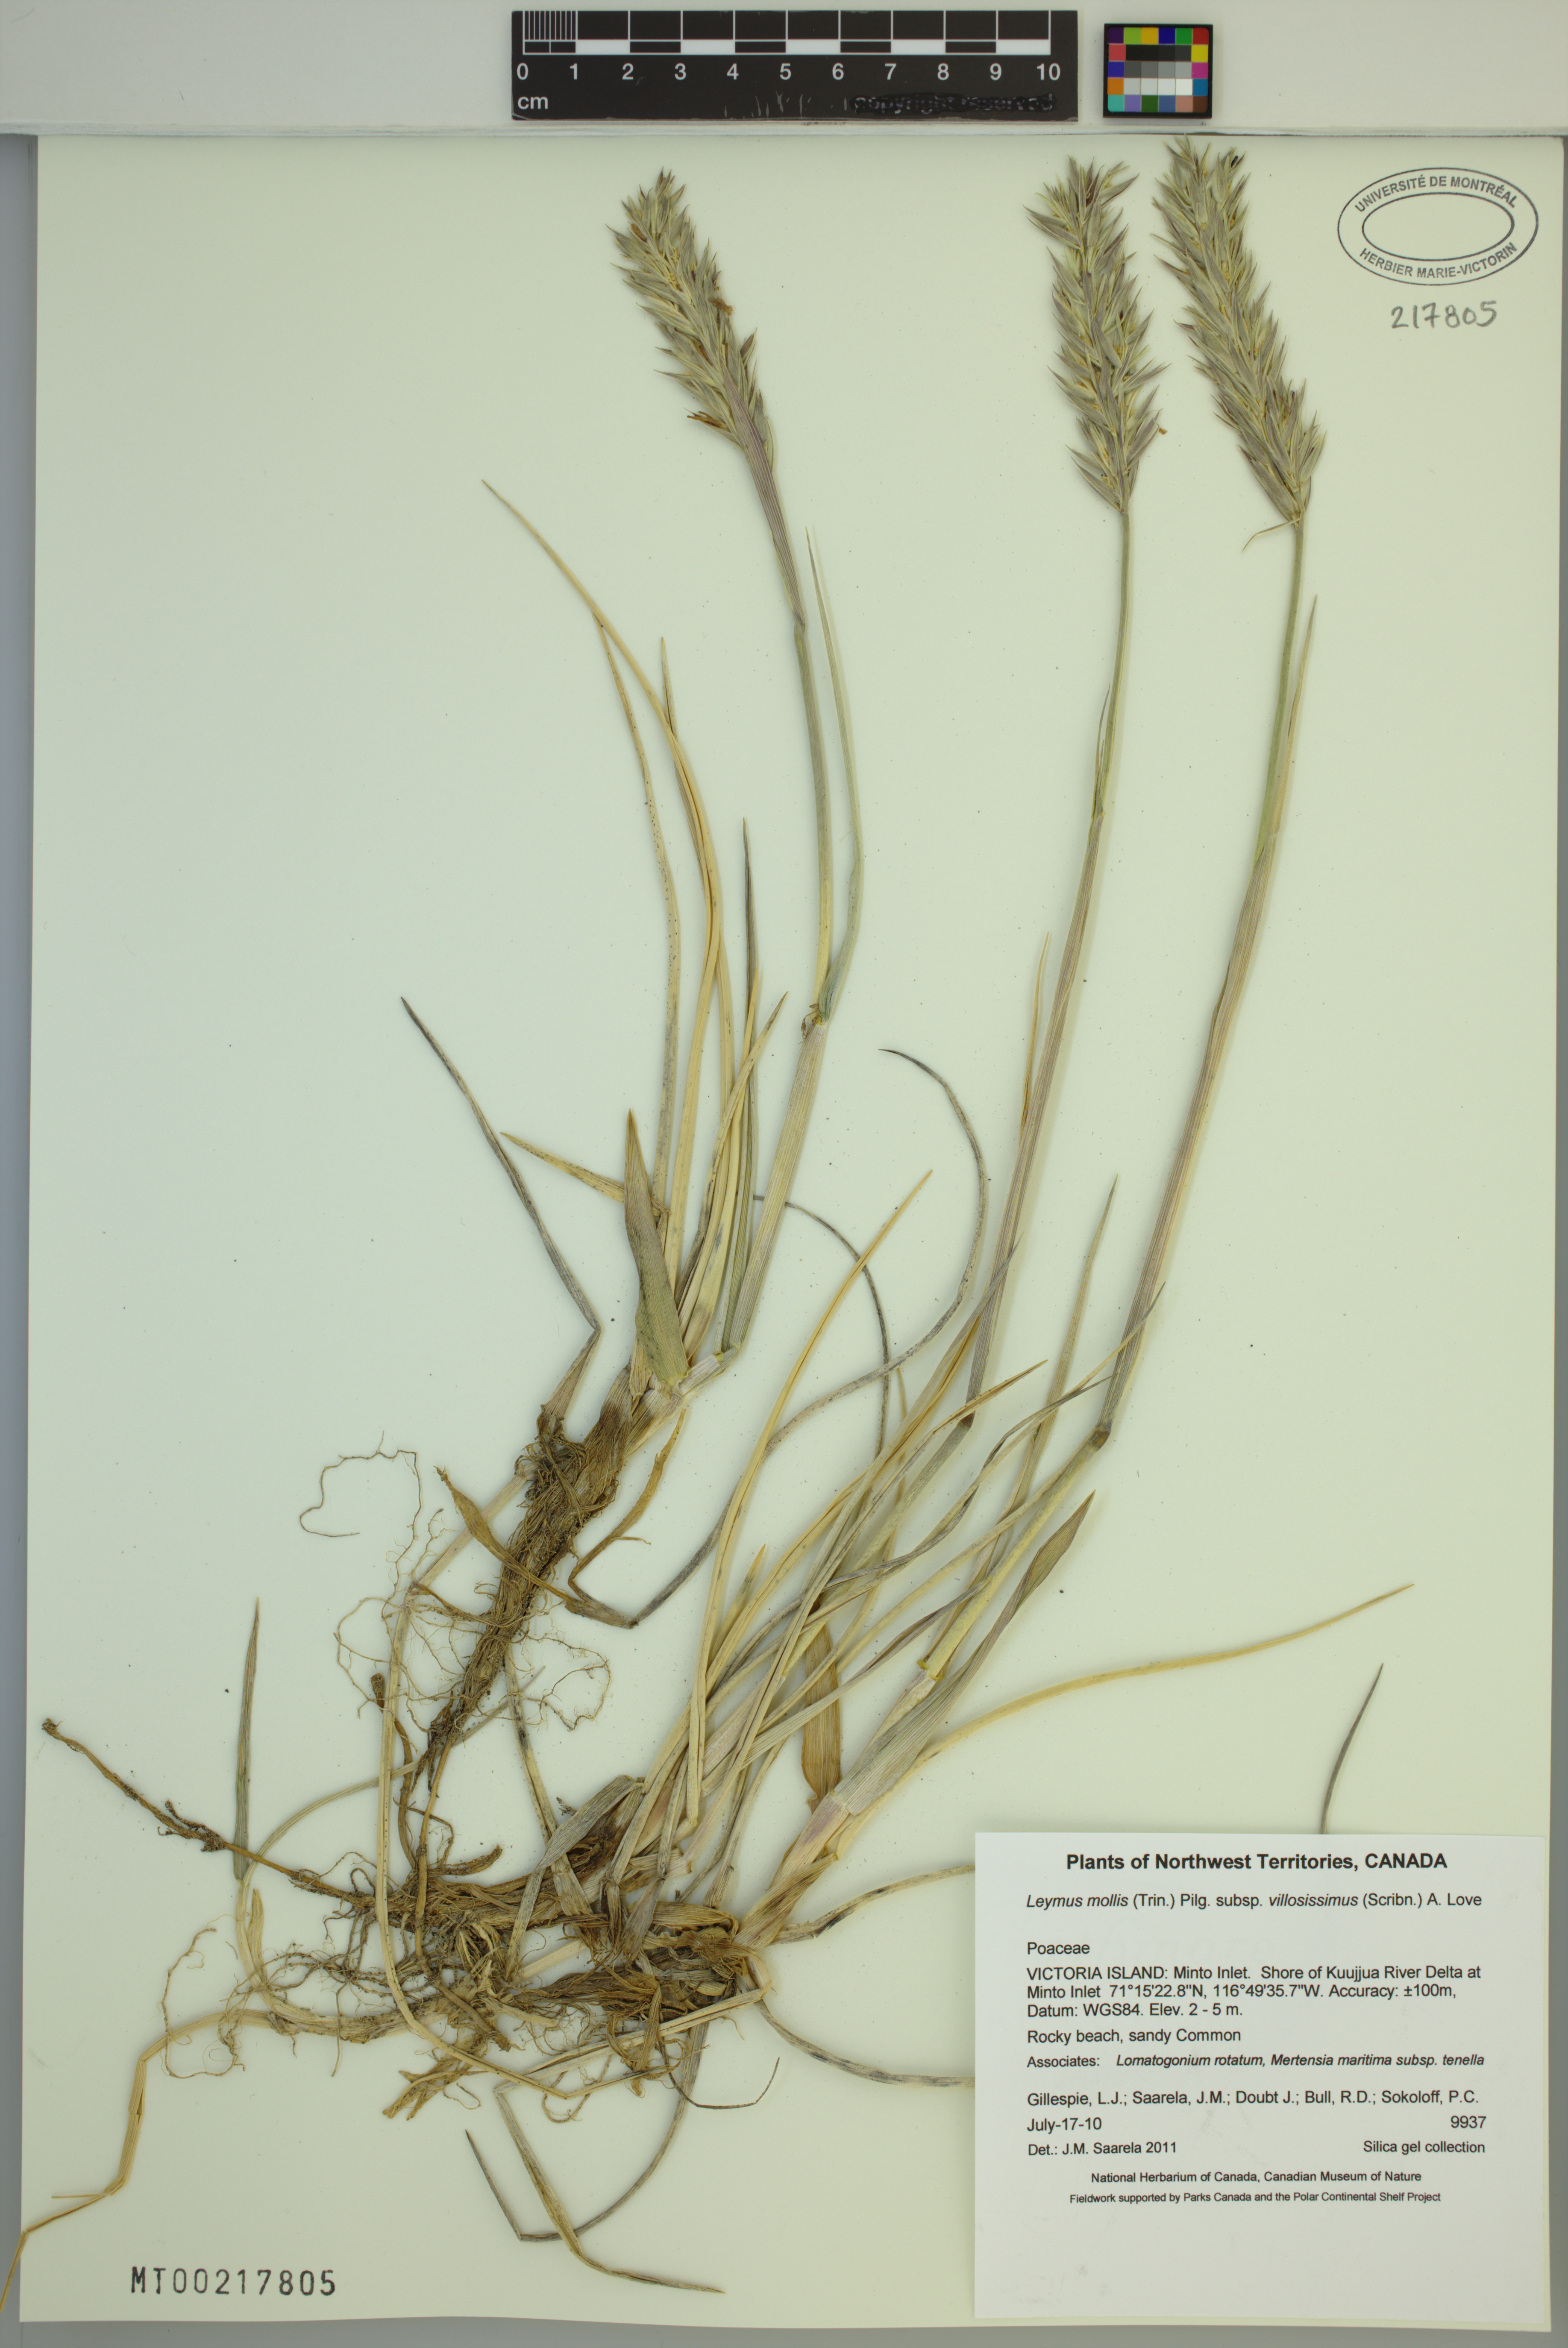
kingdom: Plantae
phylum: Tracheophyta
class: Liliopsida
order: Poales
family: Poaceae
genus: Leymus
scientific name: Leymus villosissimus
